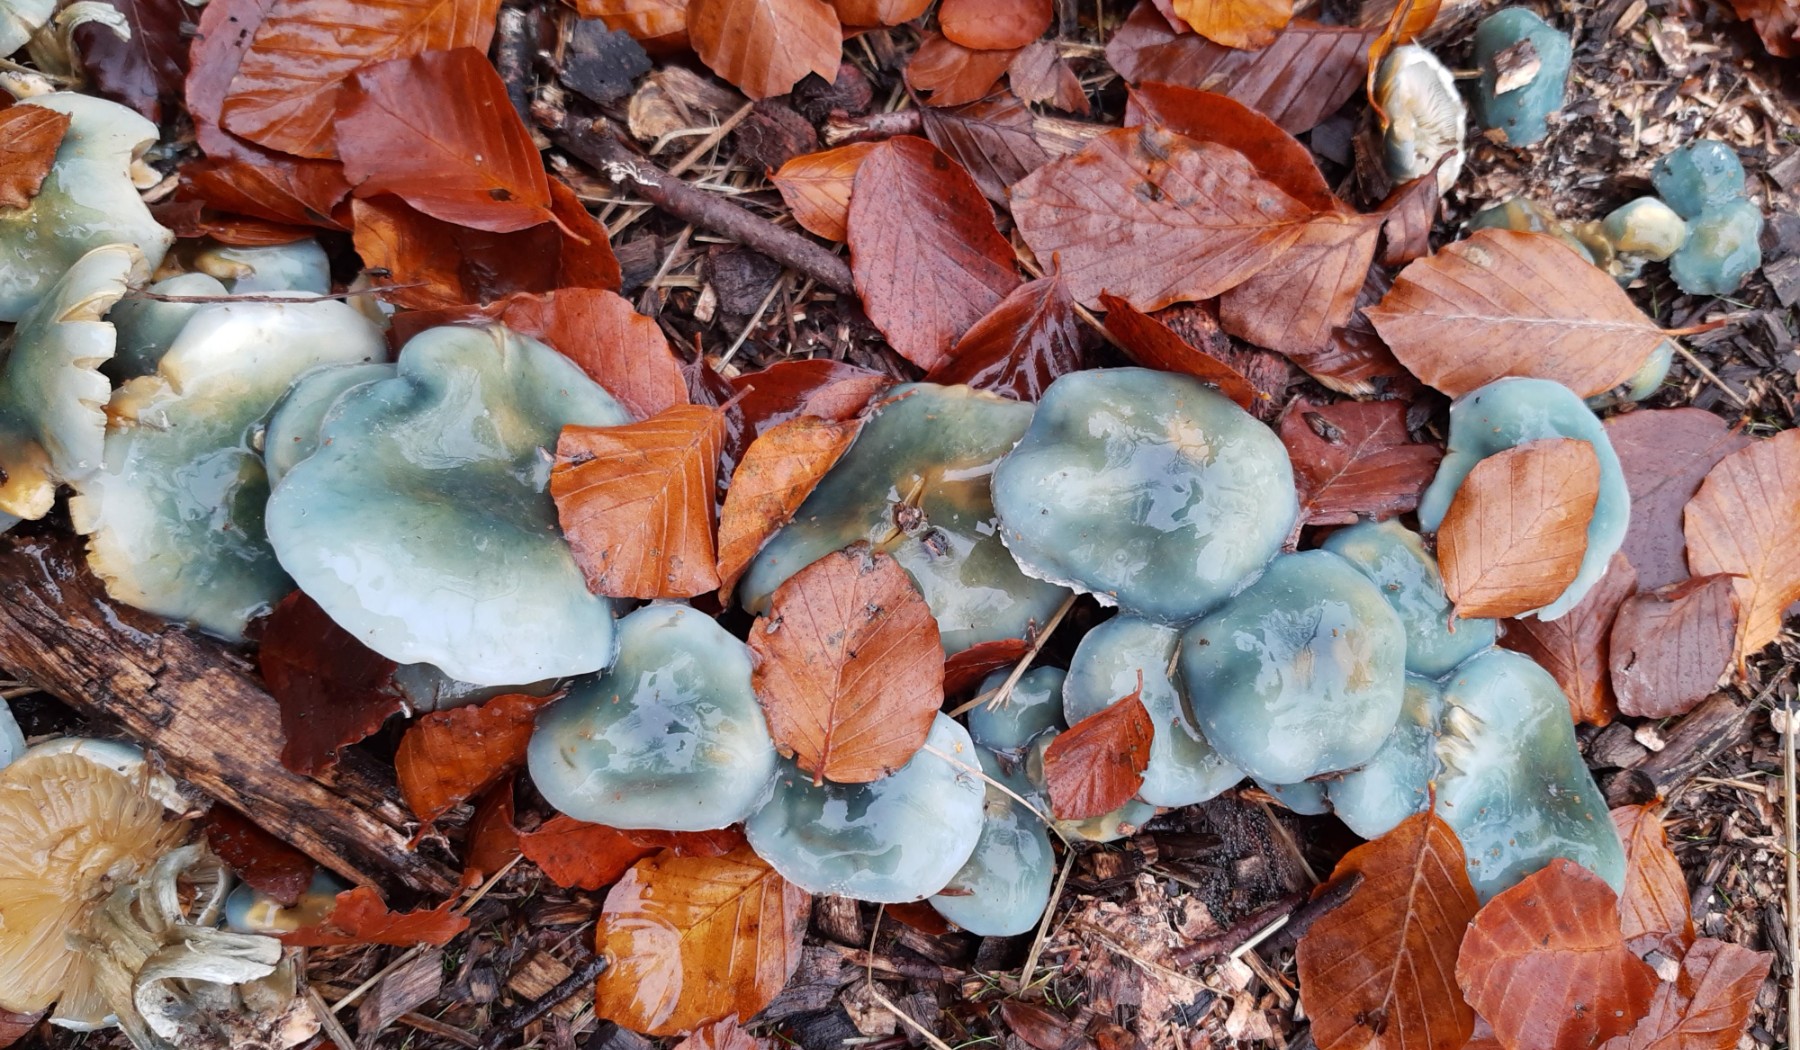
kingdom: Fungi
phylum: Basidiomycota
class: Agaricomycetes
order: Agaricales
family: Strophariaceae
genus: Stropharia
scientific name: Stropharia cyanea
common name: blågrøn bredblad
